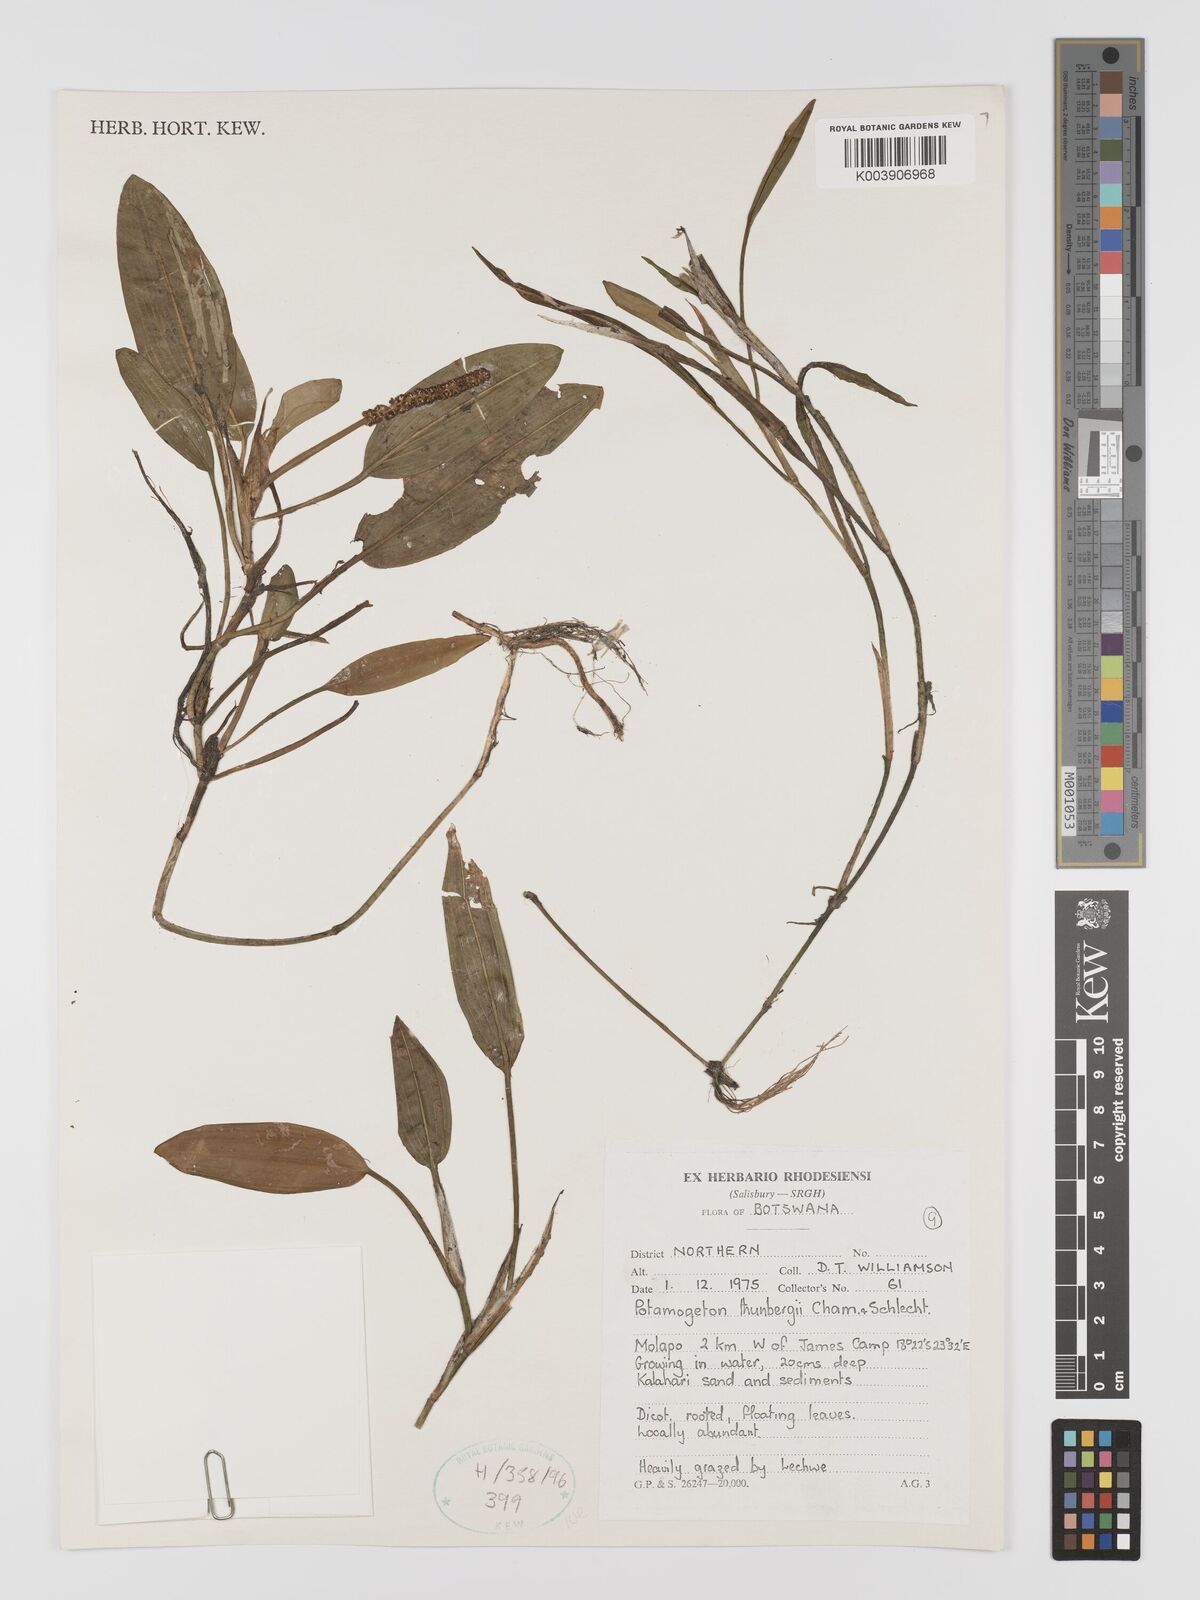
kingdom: Plantae
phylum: Tracheophyta
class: Liliopsida
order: Alismatales
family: Potamogetonaceae
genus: Potamogeton
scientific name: Potamogeton nodosus
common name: Loddon pondweed
